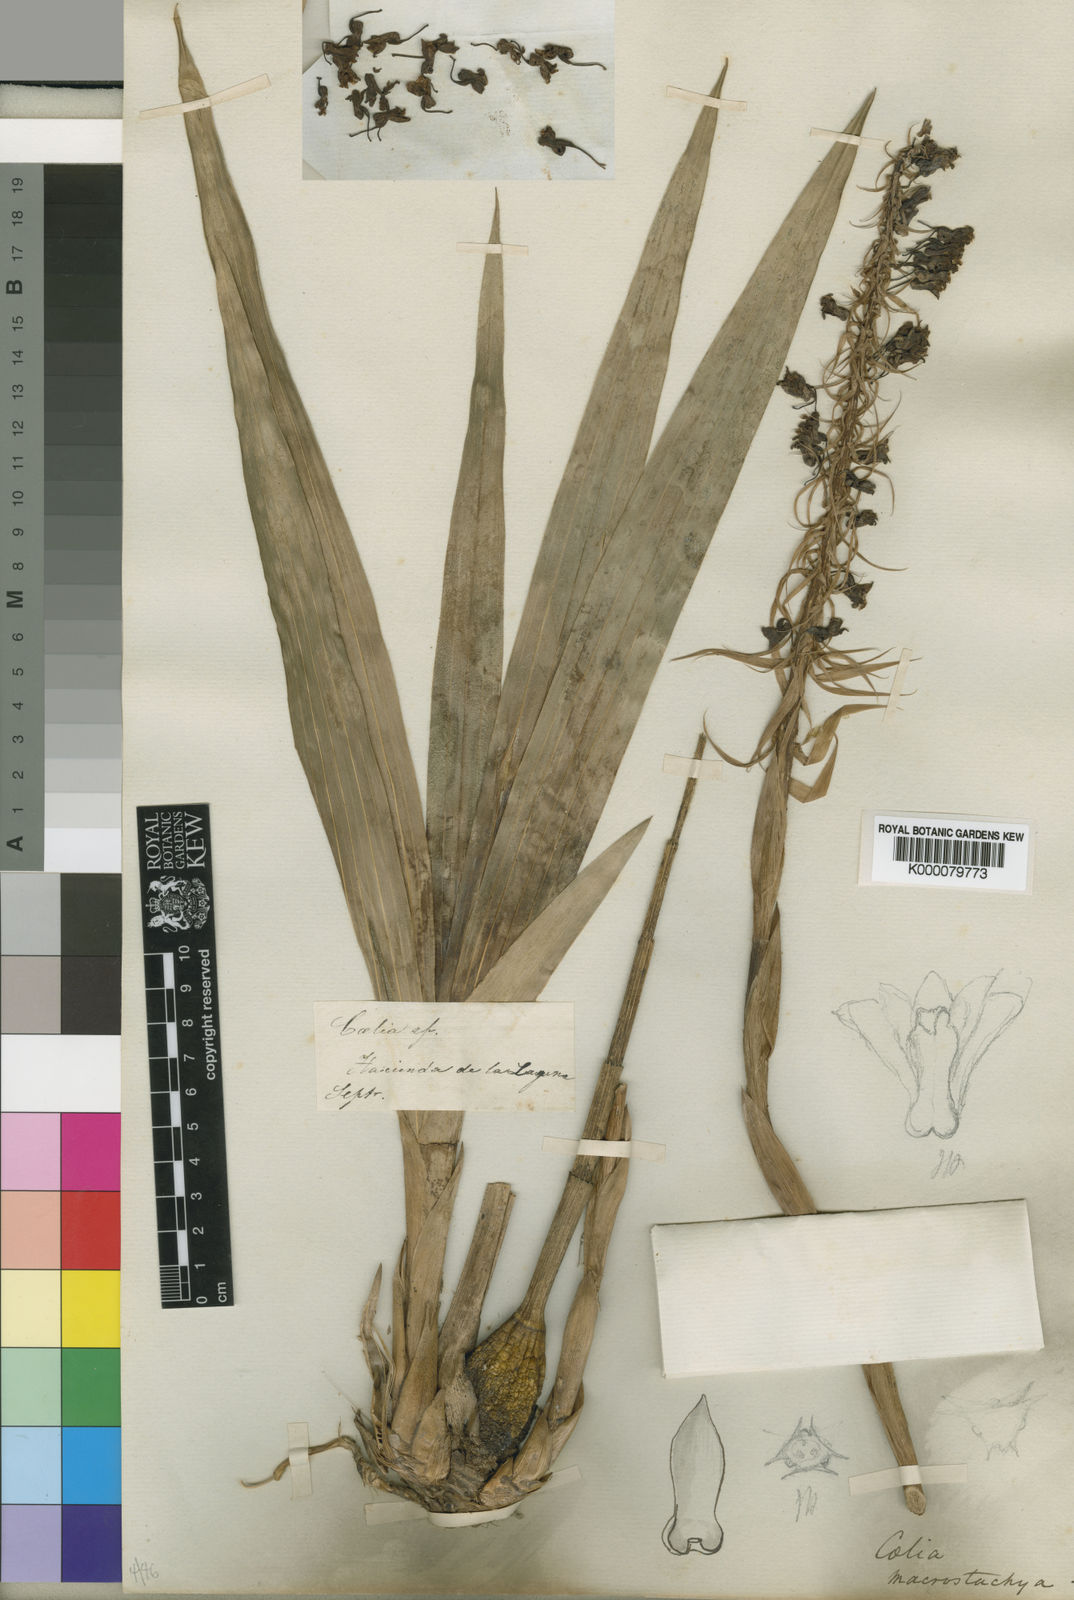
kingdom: Plantae
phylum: Tracheophyta
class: Liliopsida
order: Asparagales
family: Orchidaceae
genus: Coelia
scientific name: Coelia macrostachya
